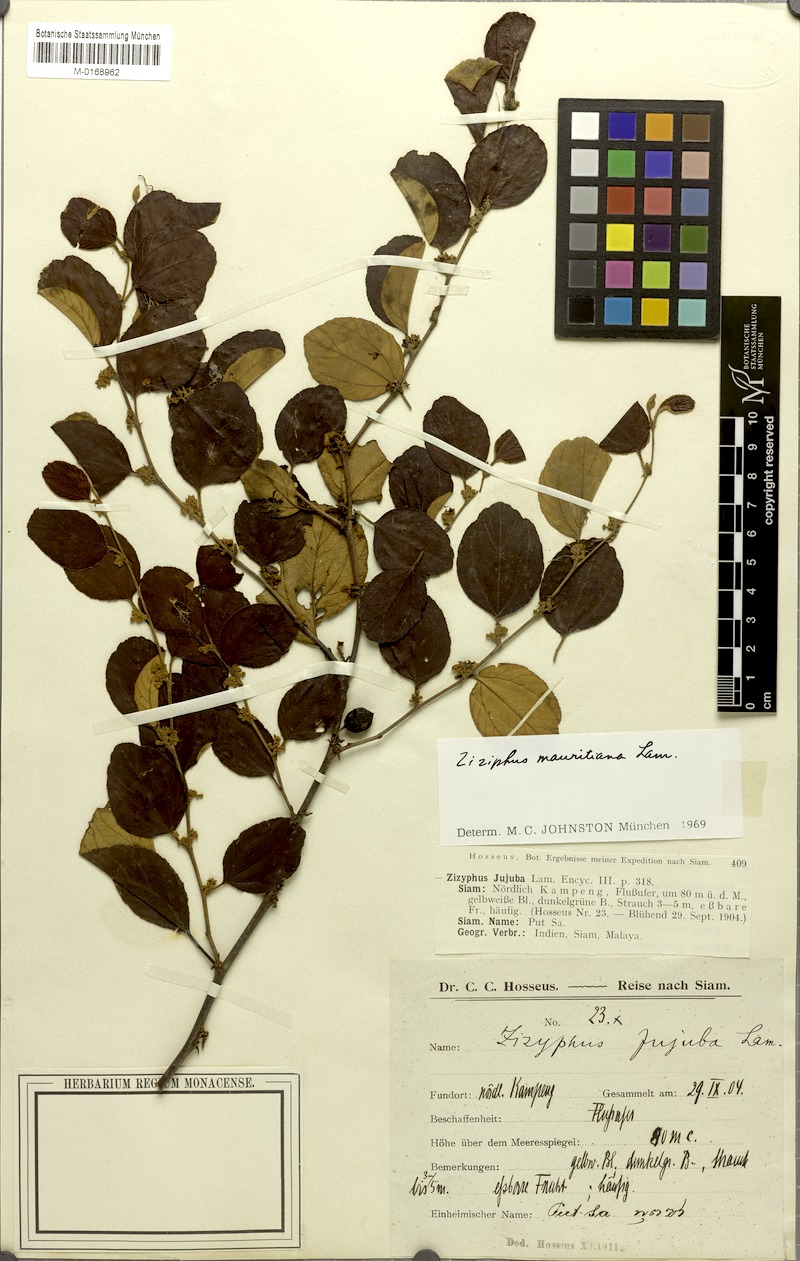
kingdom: Plantae
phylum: Tracheophyta
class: Magnoliopsida
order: Rosales
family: Rhamnaceae
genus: Ziziphus
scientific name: Ziziphus mauritiana
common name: Indian jujube
